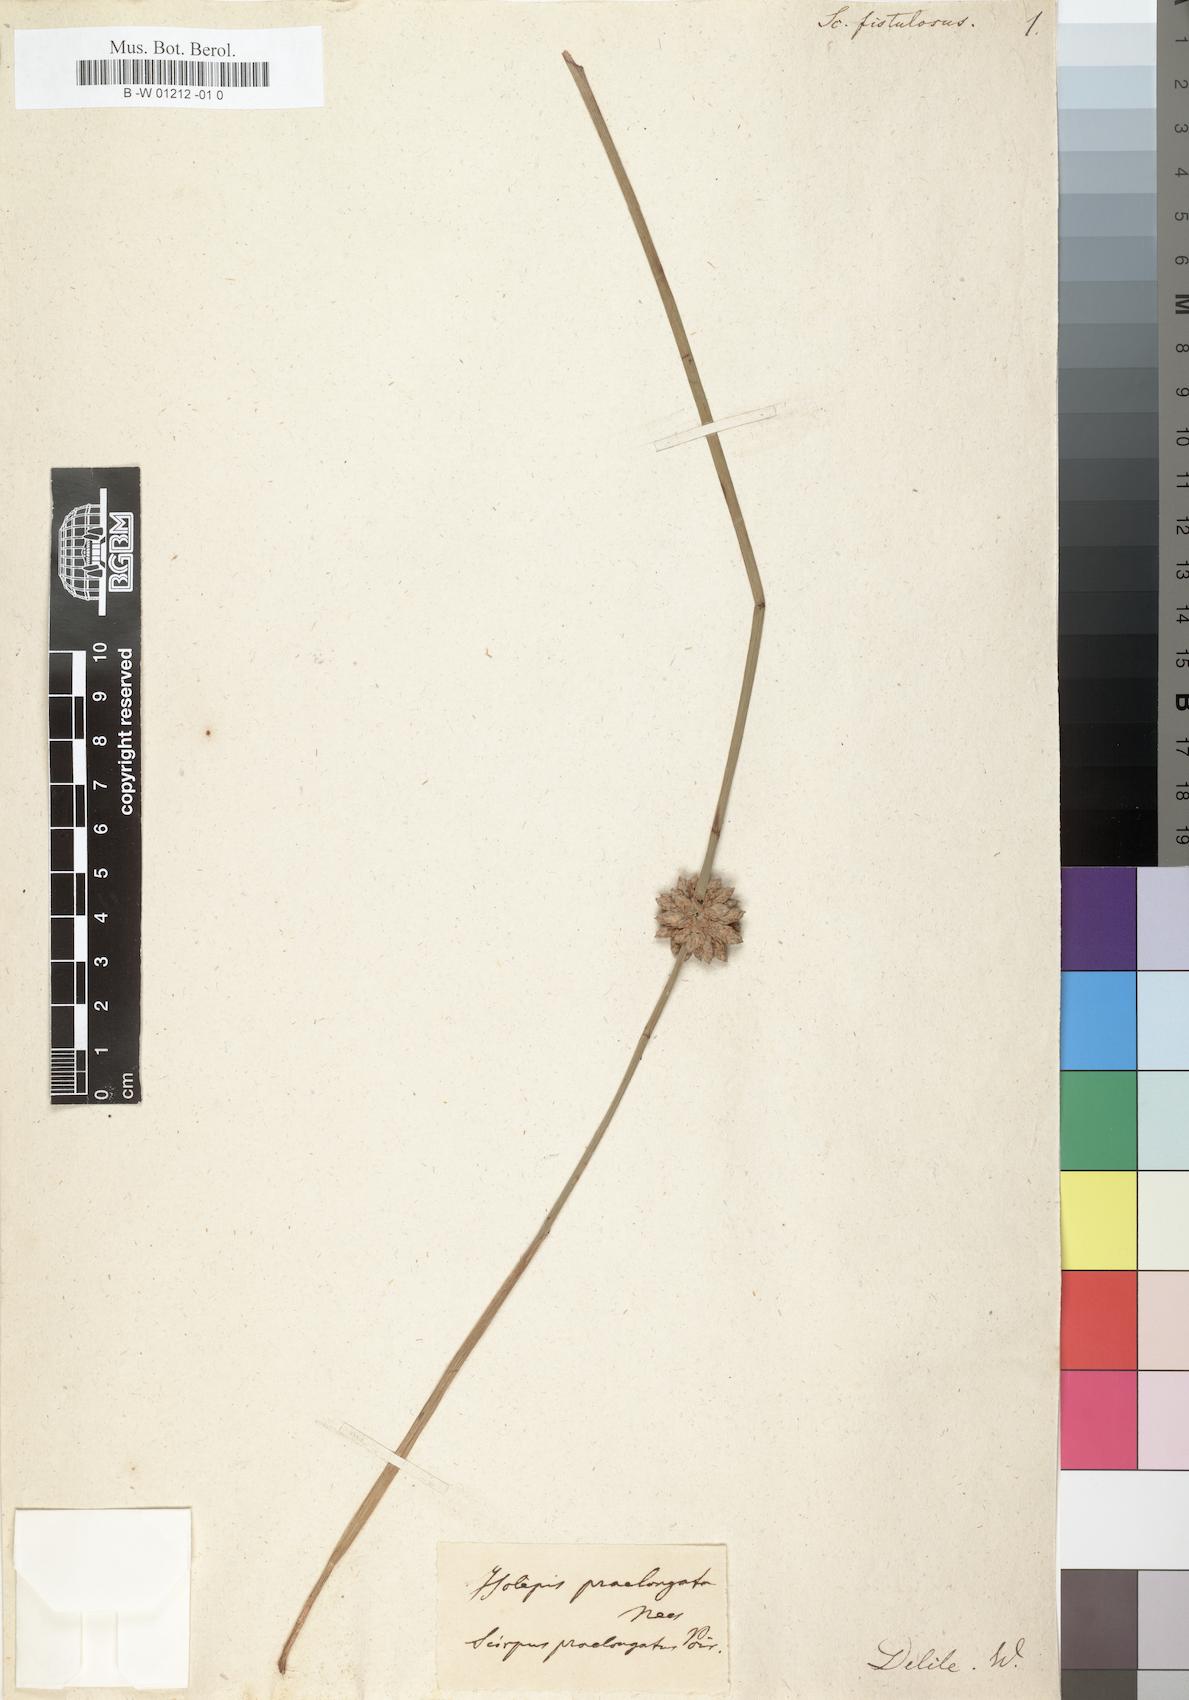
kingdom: Plantae
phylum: Tracheophyta
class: Liliopsida
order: Poales
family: Cyperaceae
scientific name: Cyperaceae
